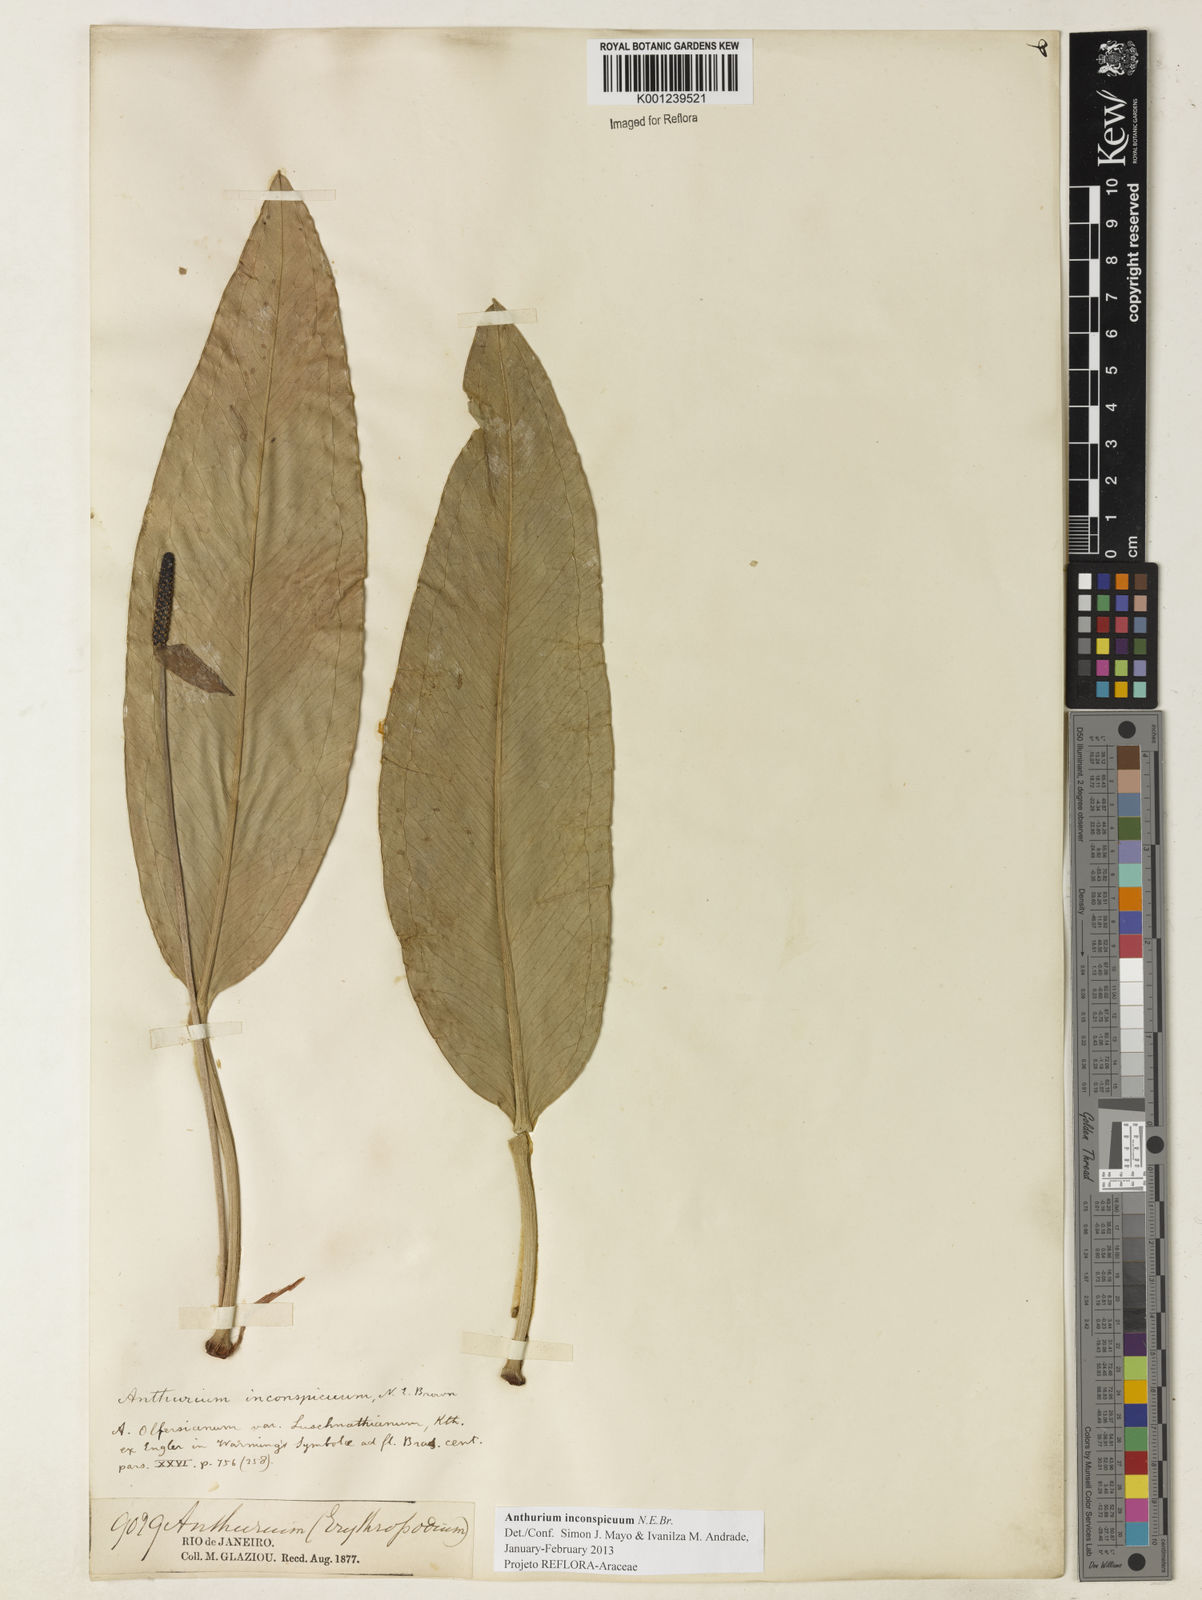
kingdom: Plantae
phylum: Tracheophyta
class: Liliopsida
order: Alismatales
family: Araceae
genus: Anthurium
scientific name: Anthurium inconspicuum
